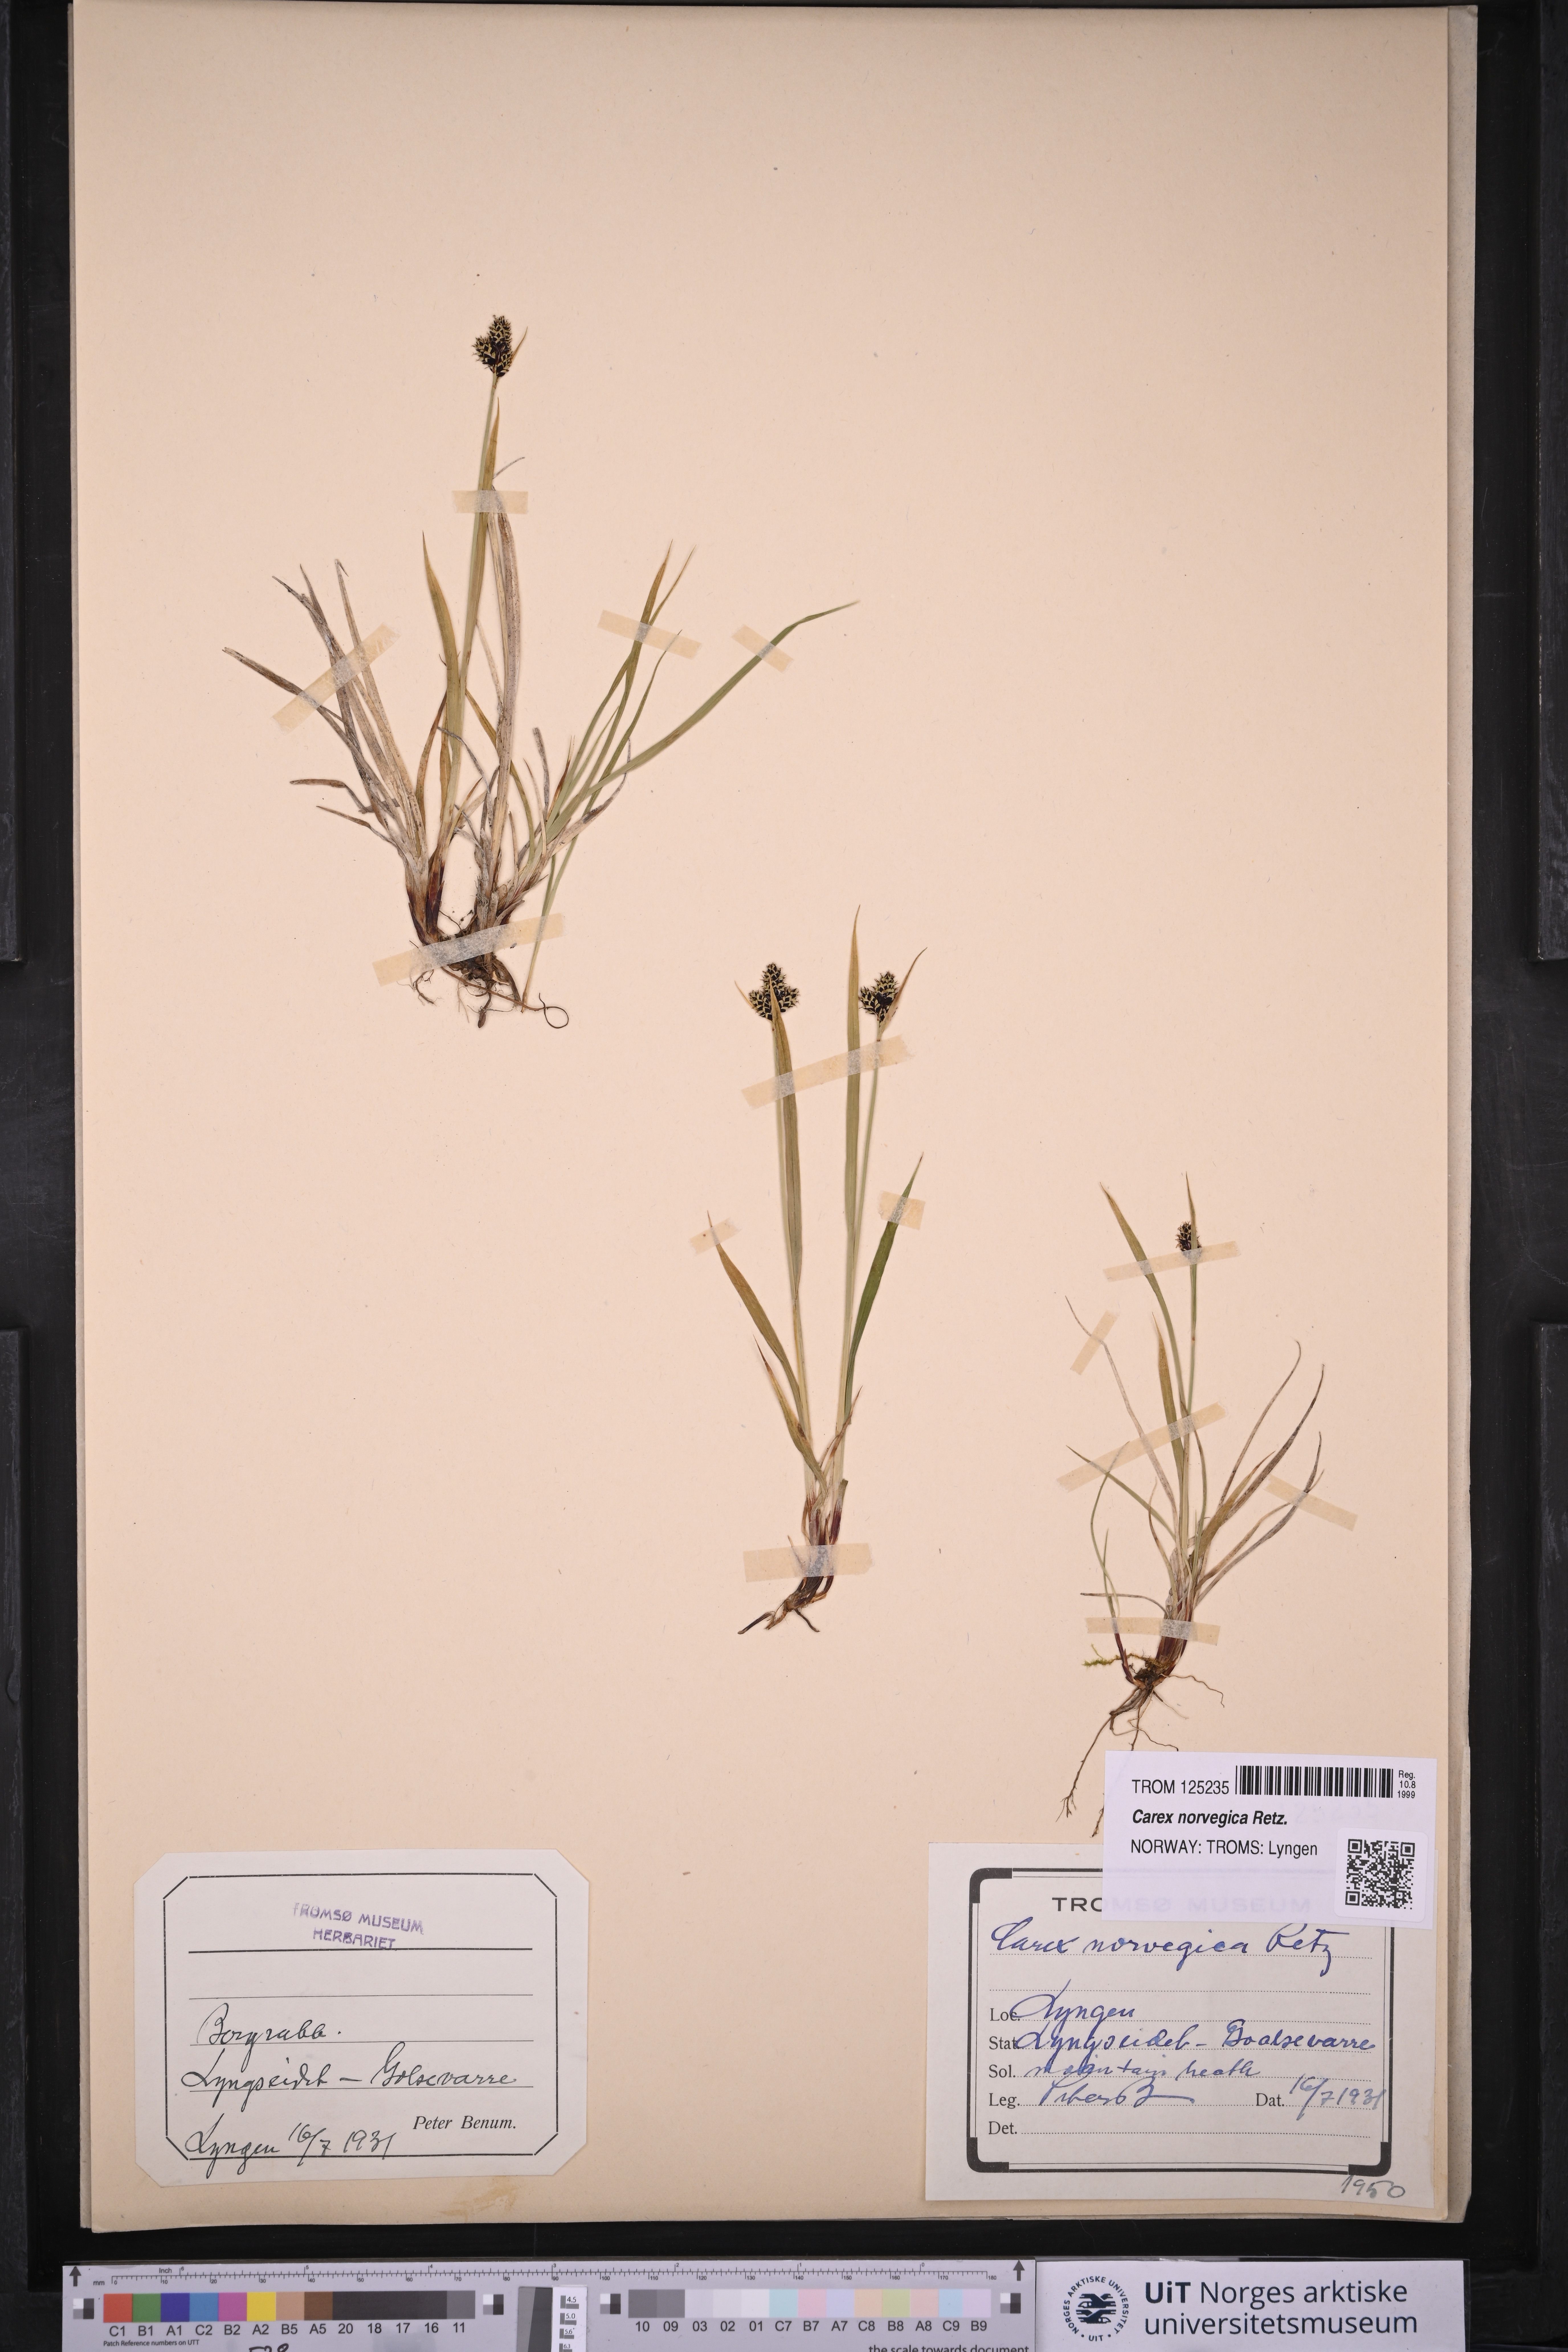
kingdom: Plantae
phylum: Tracheophyta
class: Liliopsida
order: Poales
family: Cyperaceae
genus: Carex
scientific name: Carex norvegica
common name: Close-headed alpine-sedge
